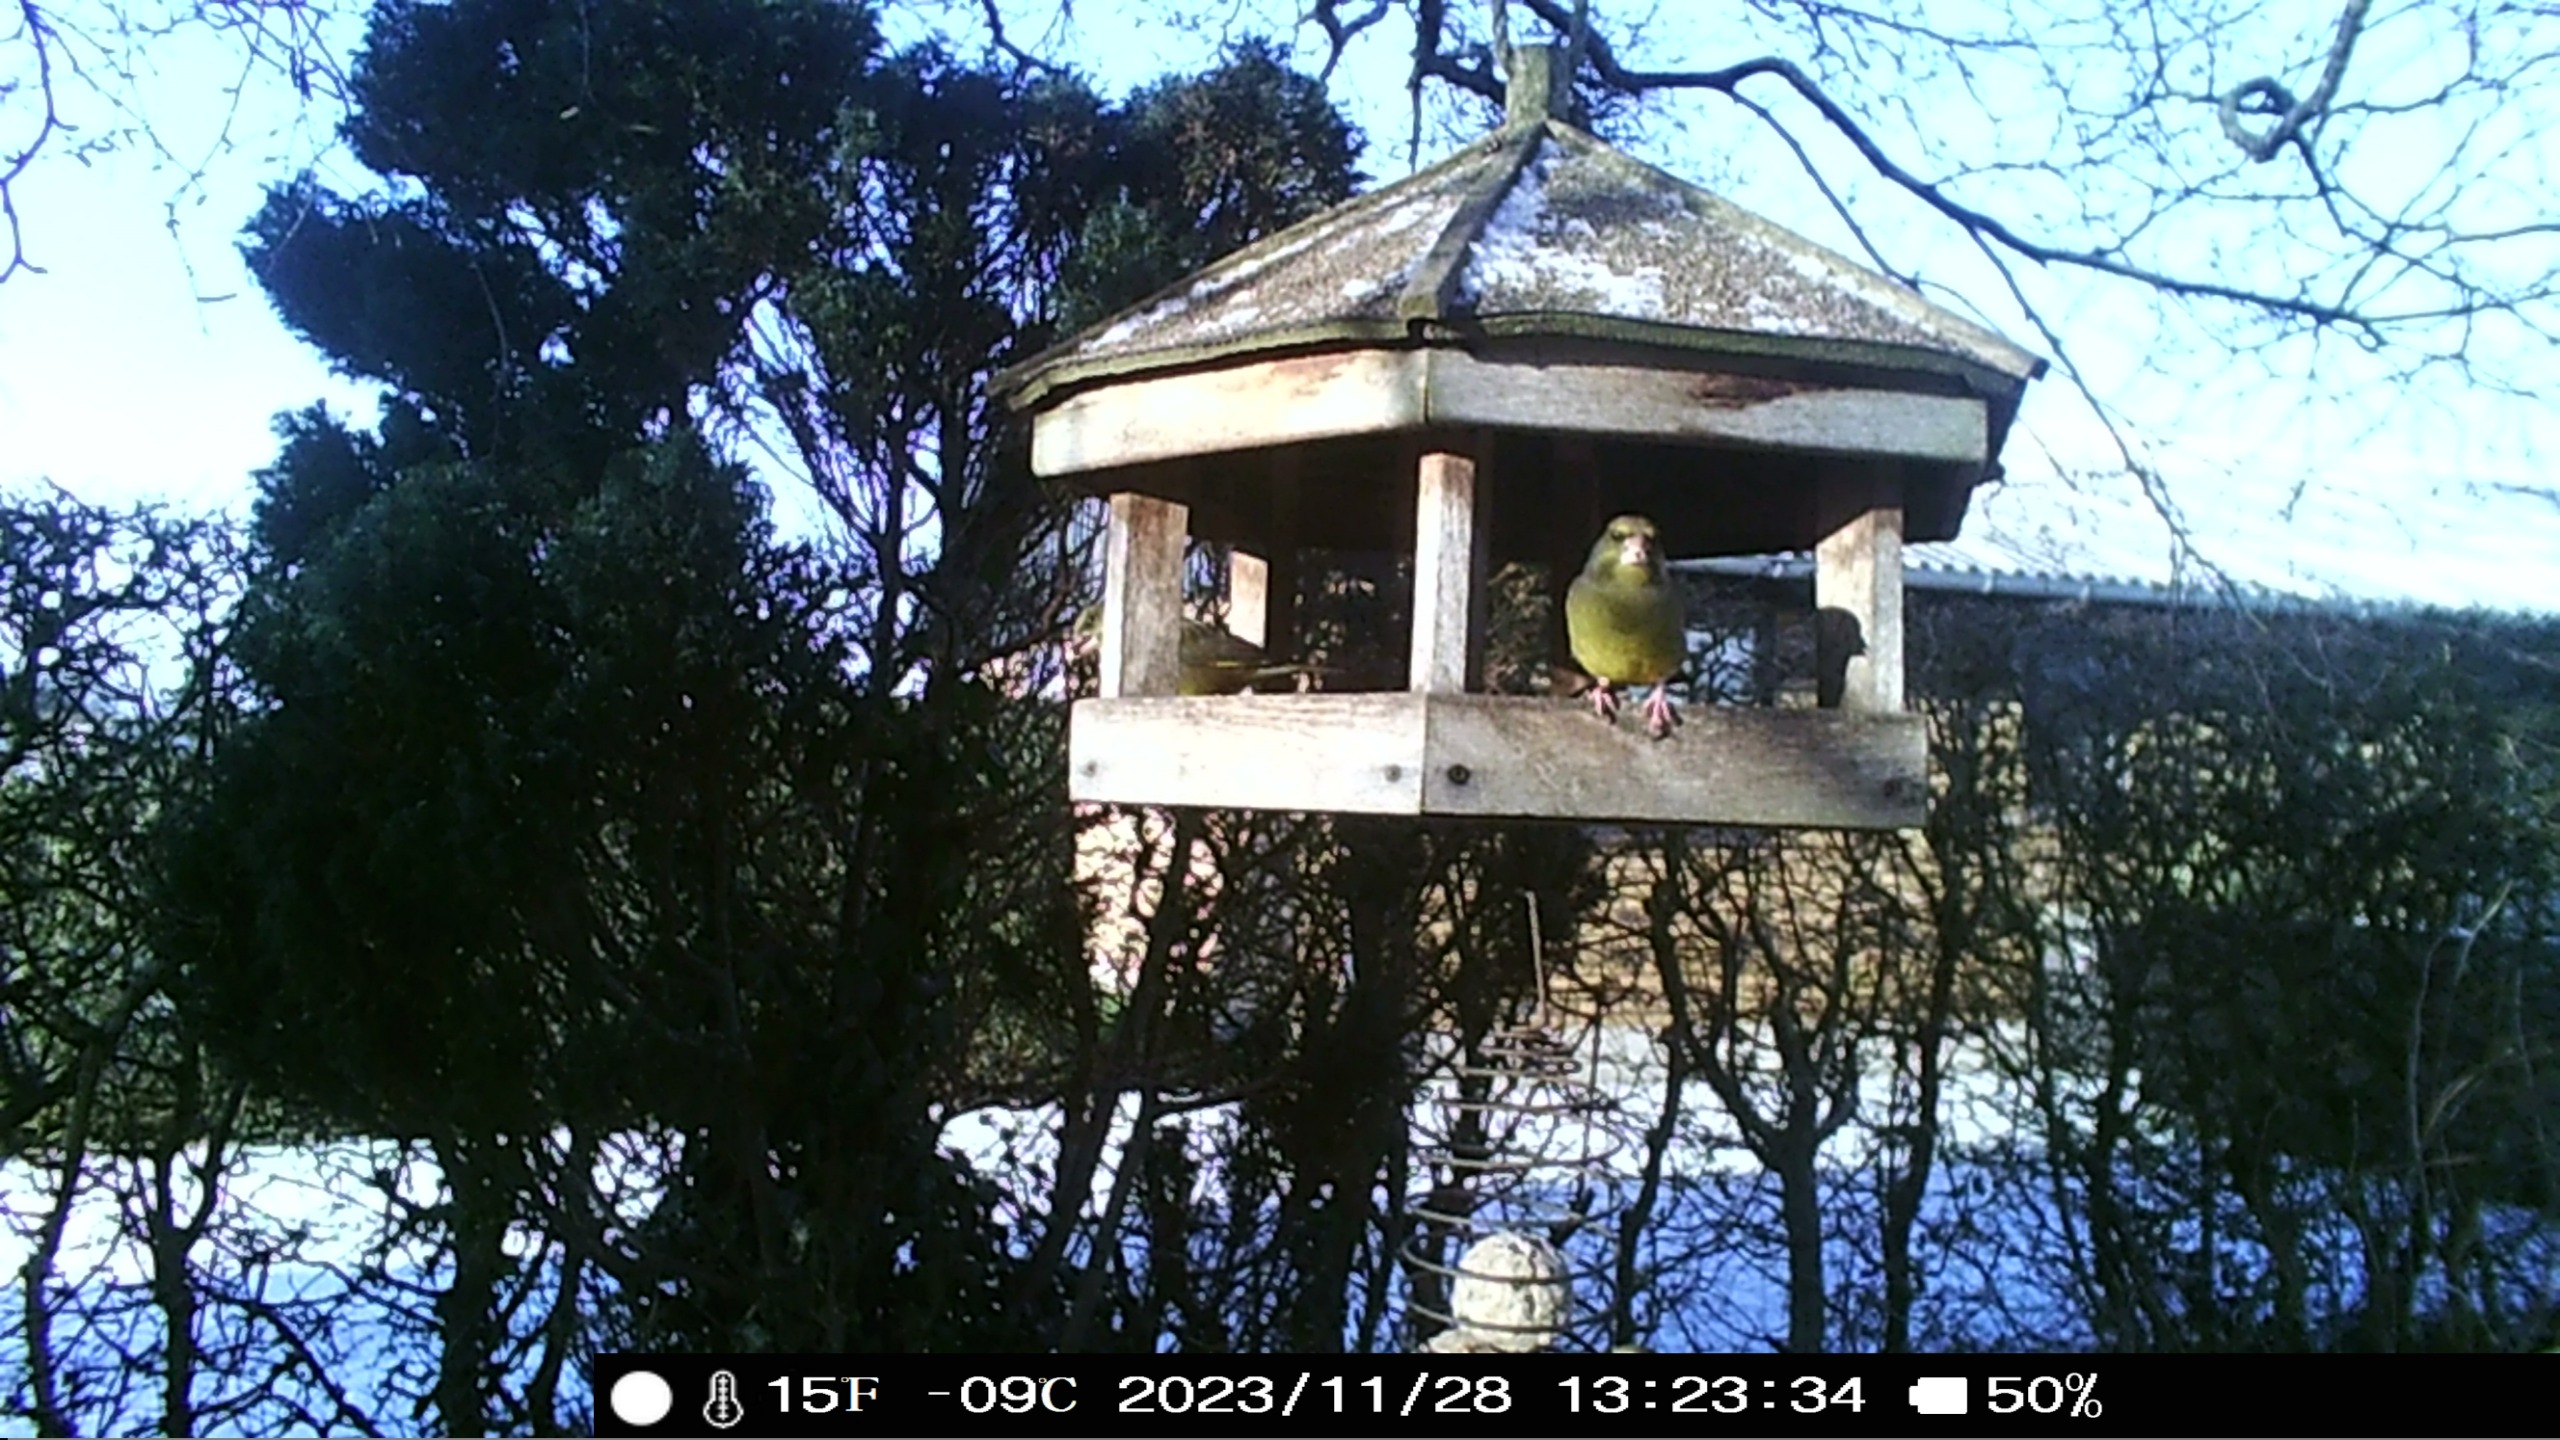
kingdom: Plantae
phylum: Tracheophyta
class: Liliopsida
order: Poales
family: Poaceae
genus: Chloris
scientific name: Chloris chloris
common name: Grønirisk
